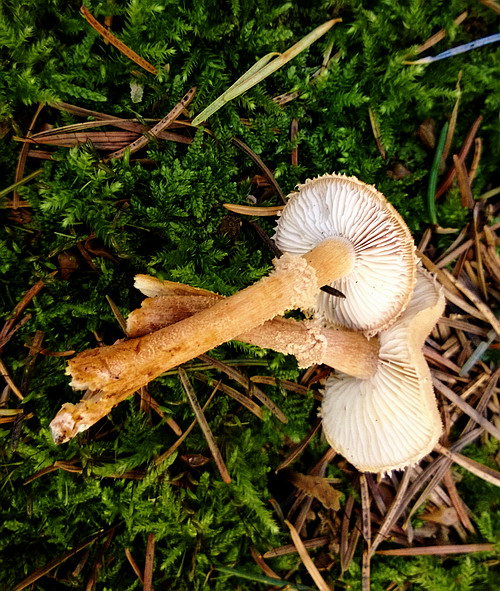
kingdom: Fungi
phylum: Basidiomycota
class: Agaricomycetes
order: Agaricales
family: Tricholomataceae
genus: Cystoderma
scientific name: Cystoderma amianthinum
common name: okkergul grynhat
